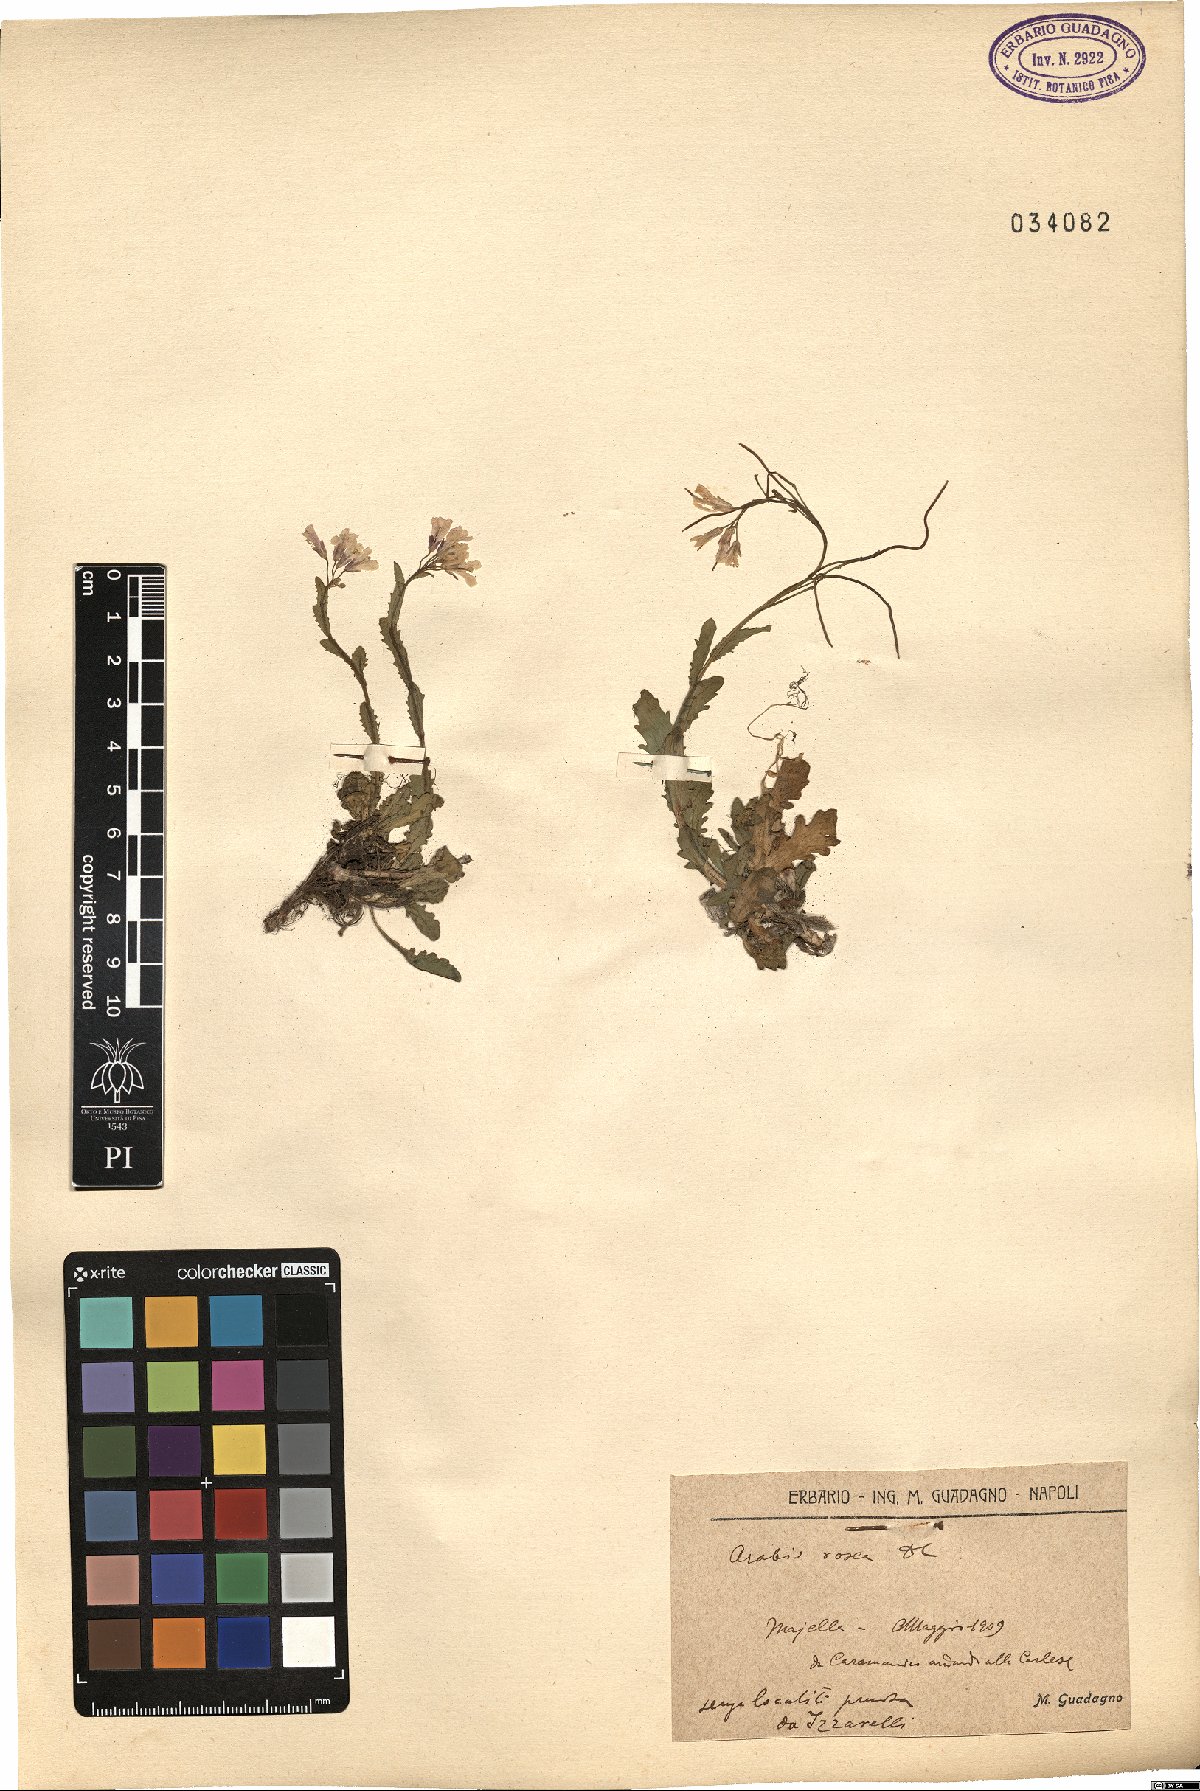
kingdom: Plantae
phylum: Tracheophyta
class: Magnoliopsida
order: Brassicales
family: Brassicaceae
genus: Arabis
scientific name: Arabis collina
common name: Rosy cress
